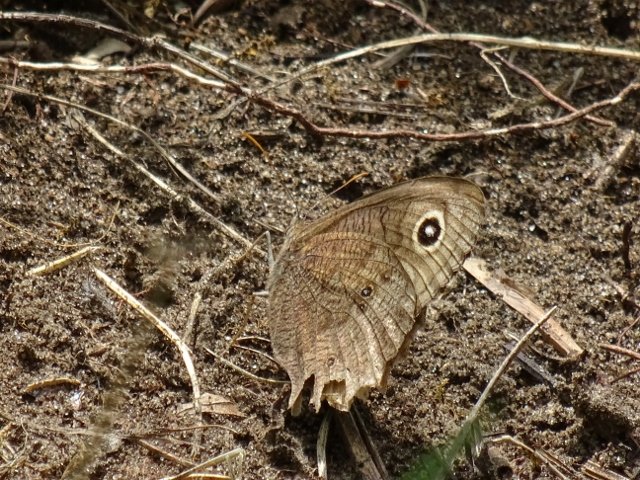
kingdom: Animalia
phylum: Arthropoda
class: Insecta
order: Lepidoptera
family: Nymphalidae
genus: Cercyonis
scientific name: Cercyonis pegala
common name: Common Wood-Nymph
